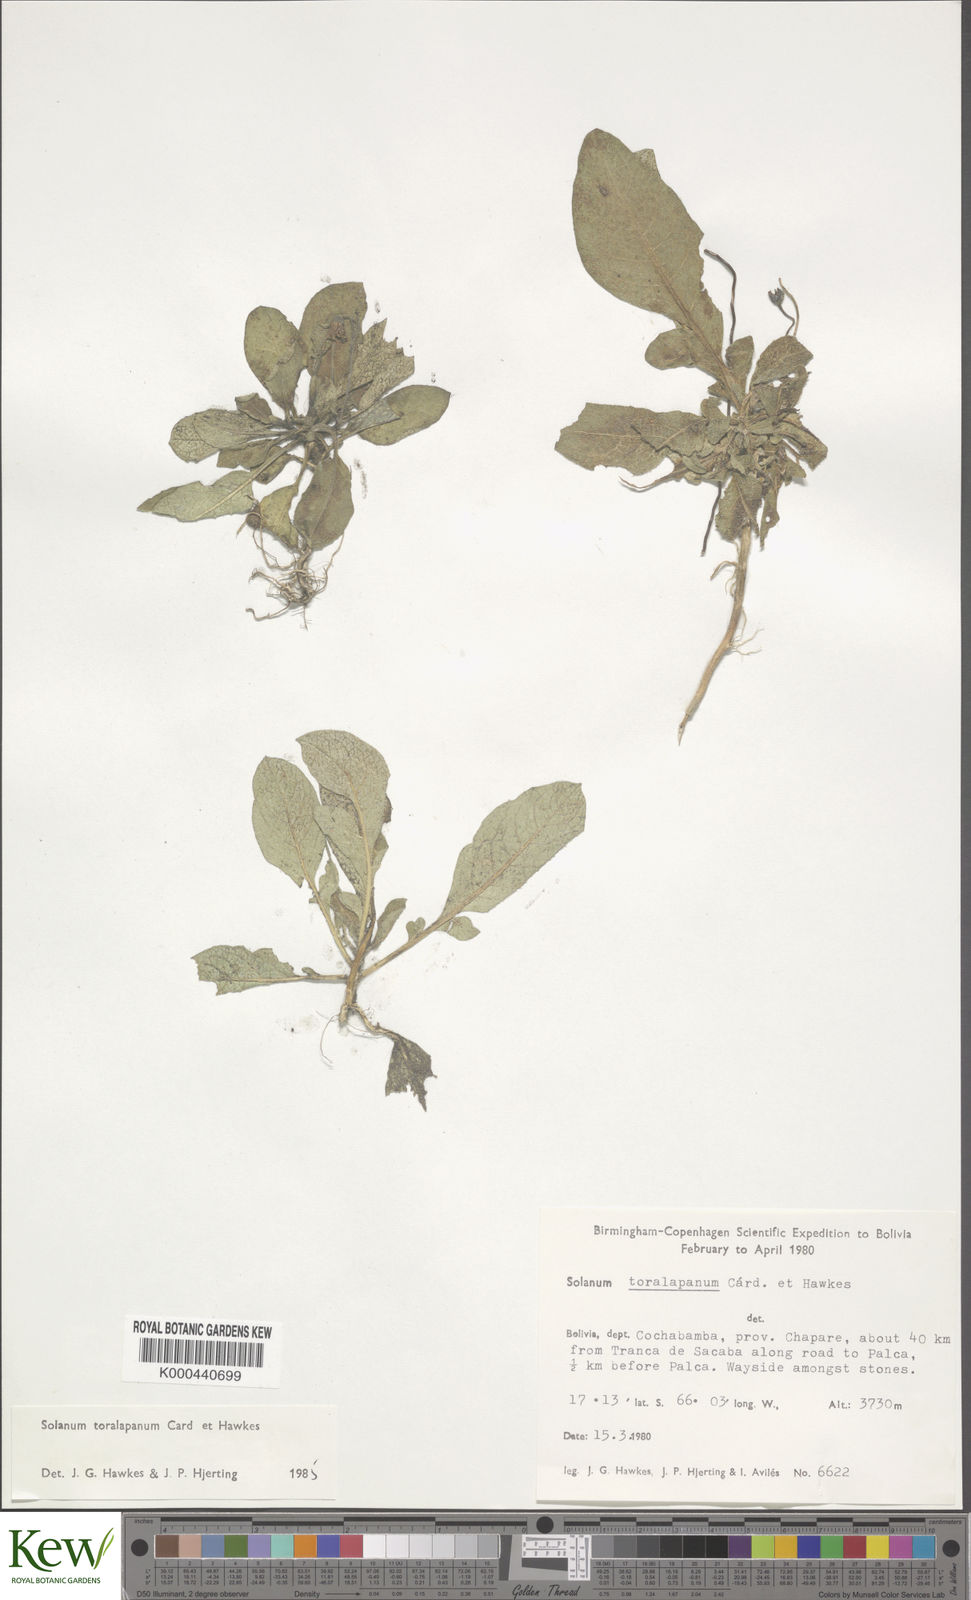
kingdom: Plantae
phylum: Tracheophyta
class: Magnoliopsida
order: Solanales
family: Solanaceae
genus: Solanum
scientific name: Solanum boliviense
